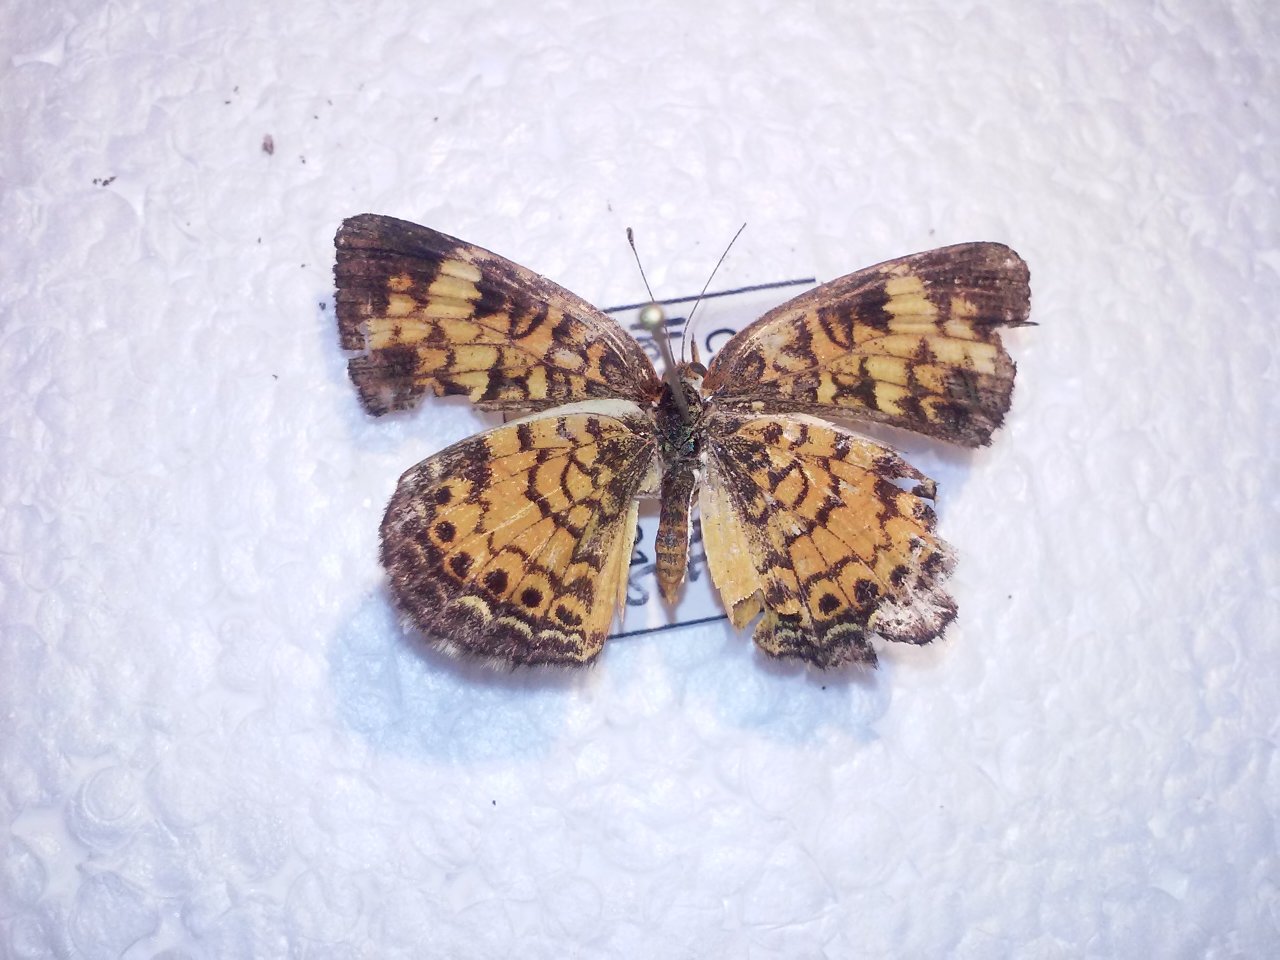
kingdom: Animalia
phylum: Arthropoda
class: Insecta
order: Lepidoptera
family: Nymphalidae
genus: Phyciodes
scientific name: Phyciodes tharos
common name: Pearl Crescent
